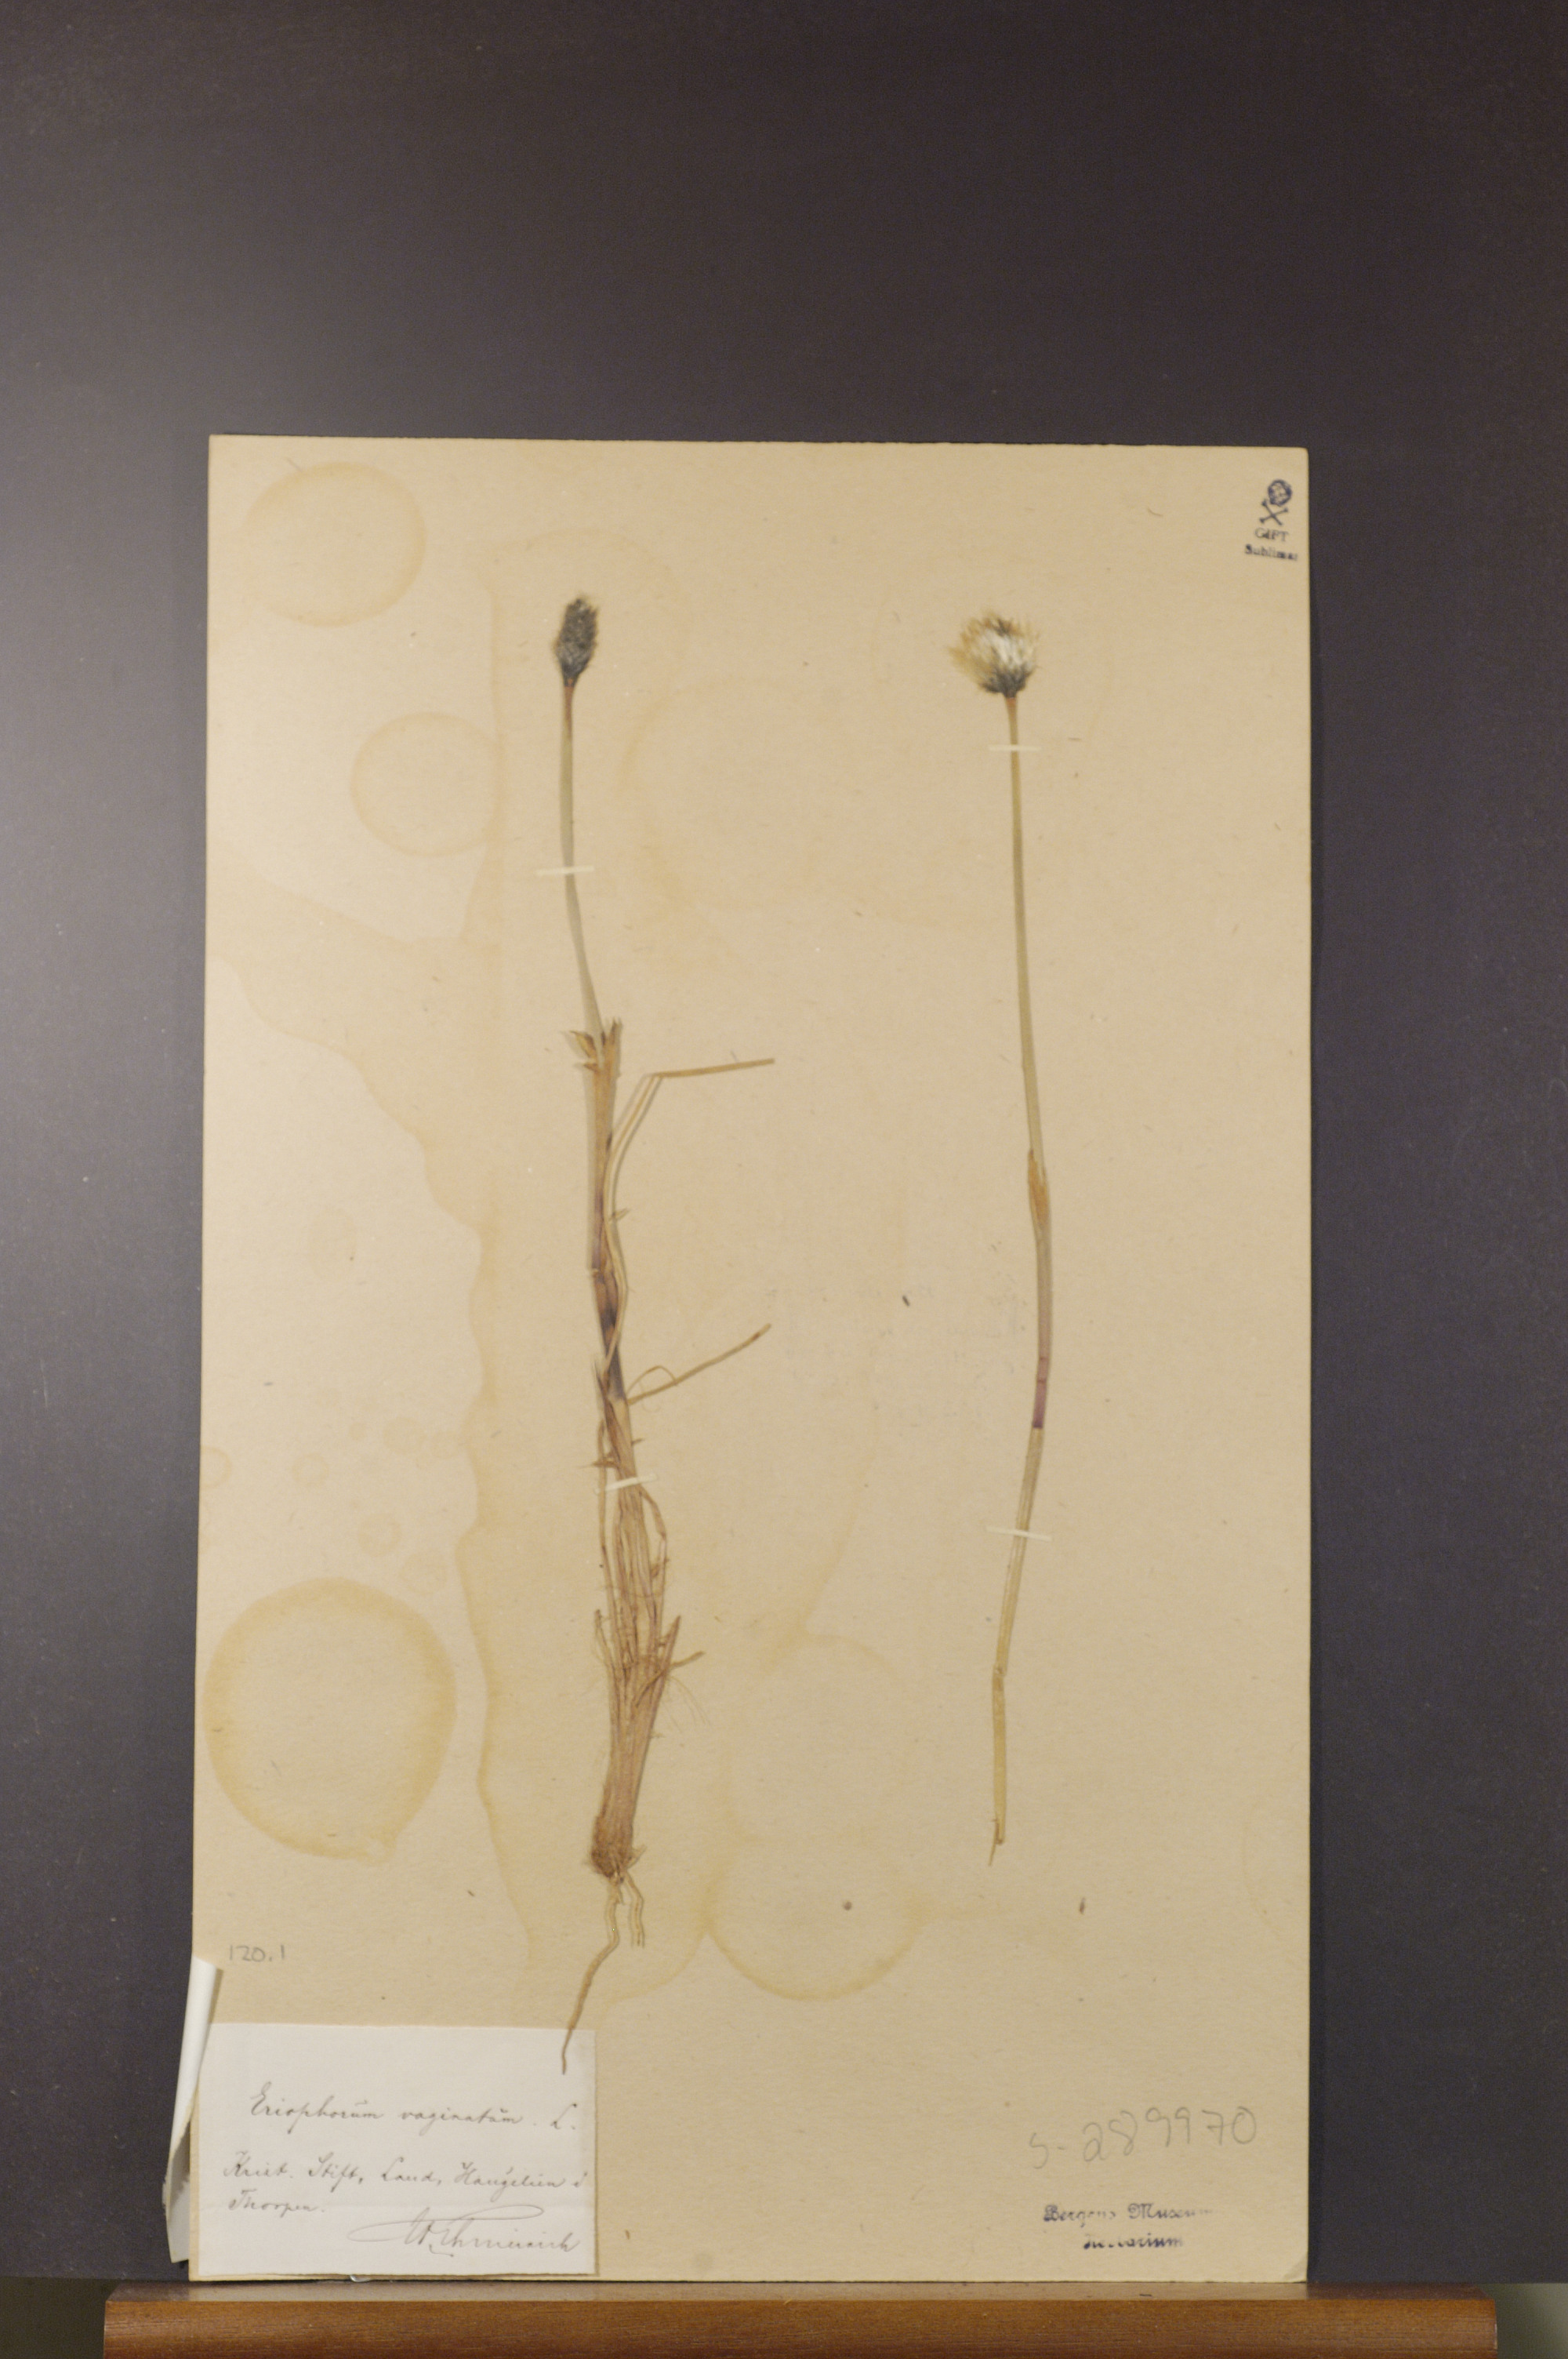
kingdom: Plantae
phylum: Tracheophyta
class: Liliopsida
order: Poales
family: Cyperaceae
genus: Eriophorum
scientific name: Eriophorum vaginatum
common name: Hare's-tail cottongrass
